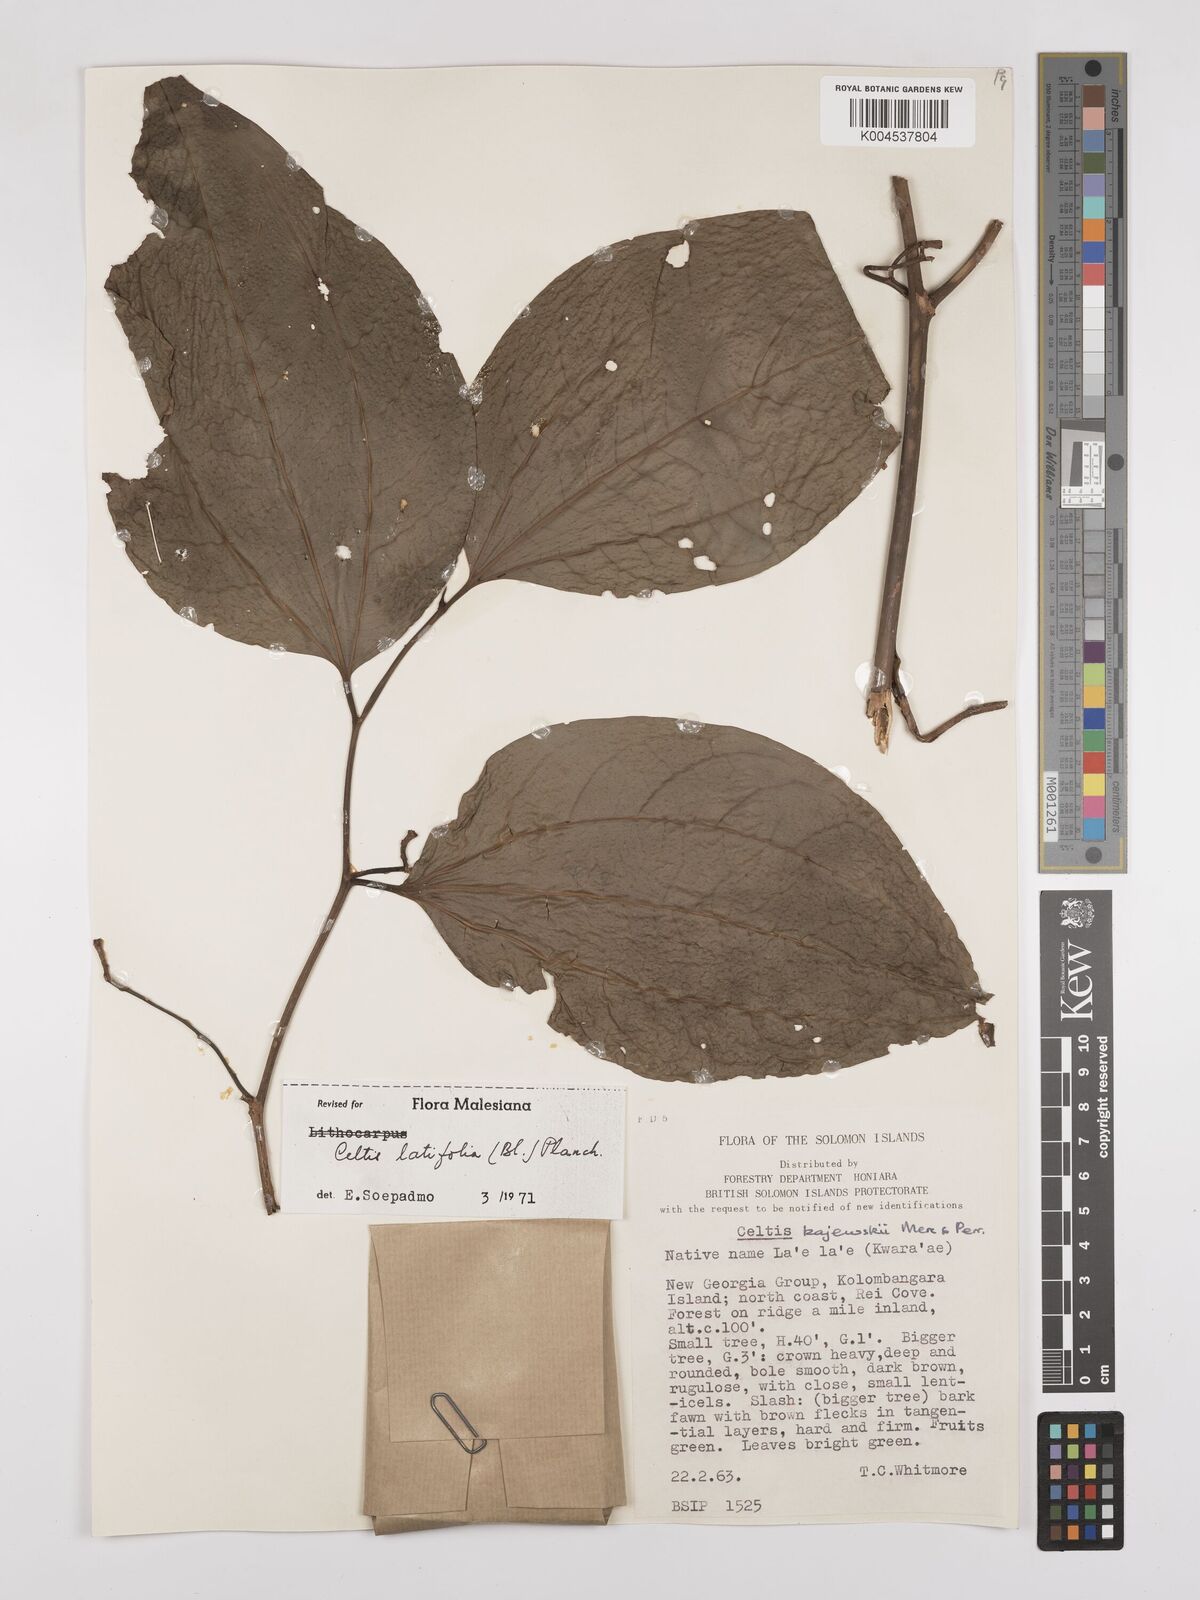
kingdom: Plantae
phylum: Tracheophyta
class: Magnoliopsida
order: Rosales
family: Cannabaceae
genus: Celtis
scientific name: Celtis latifolia
